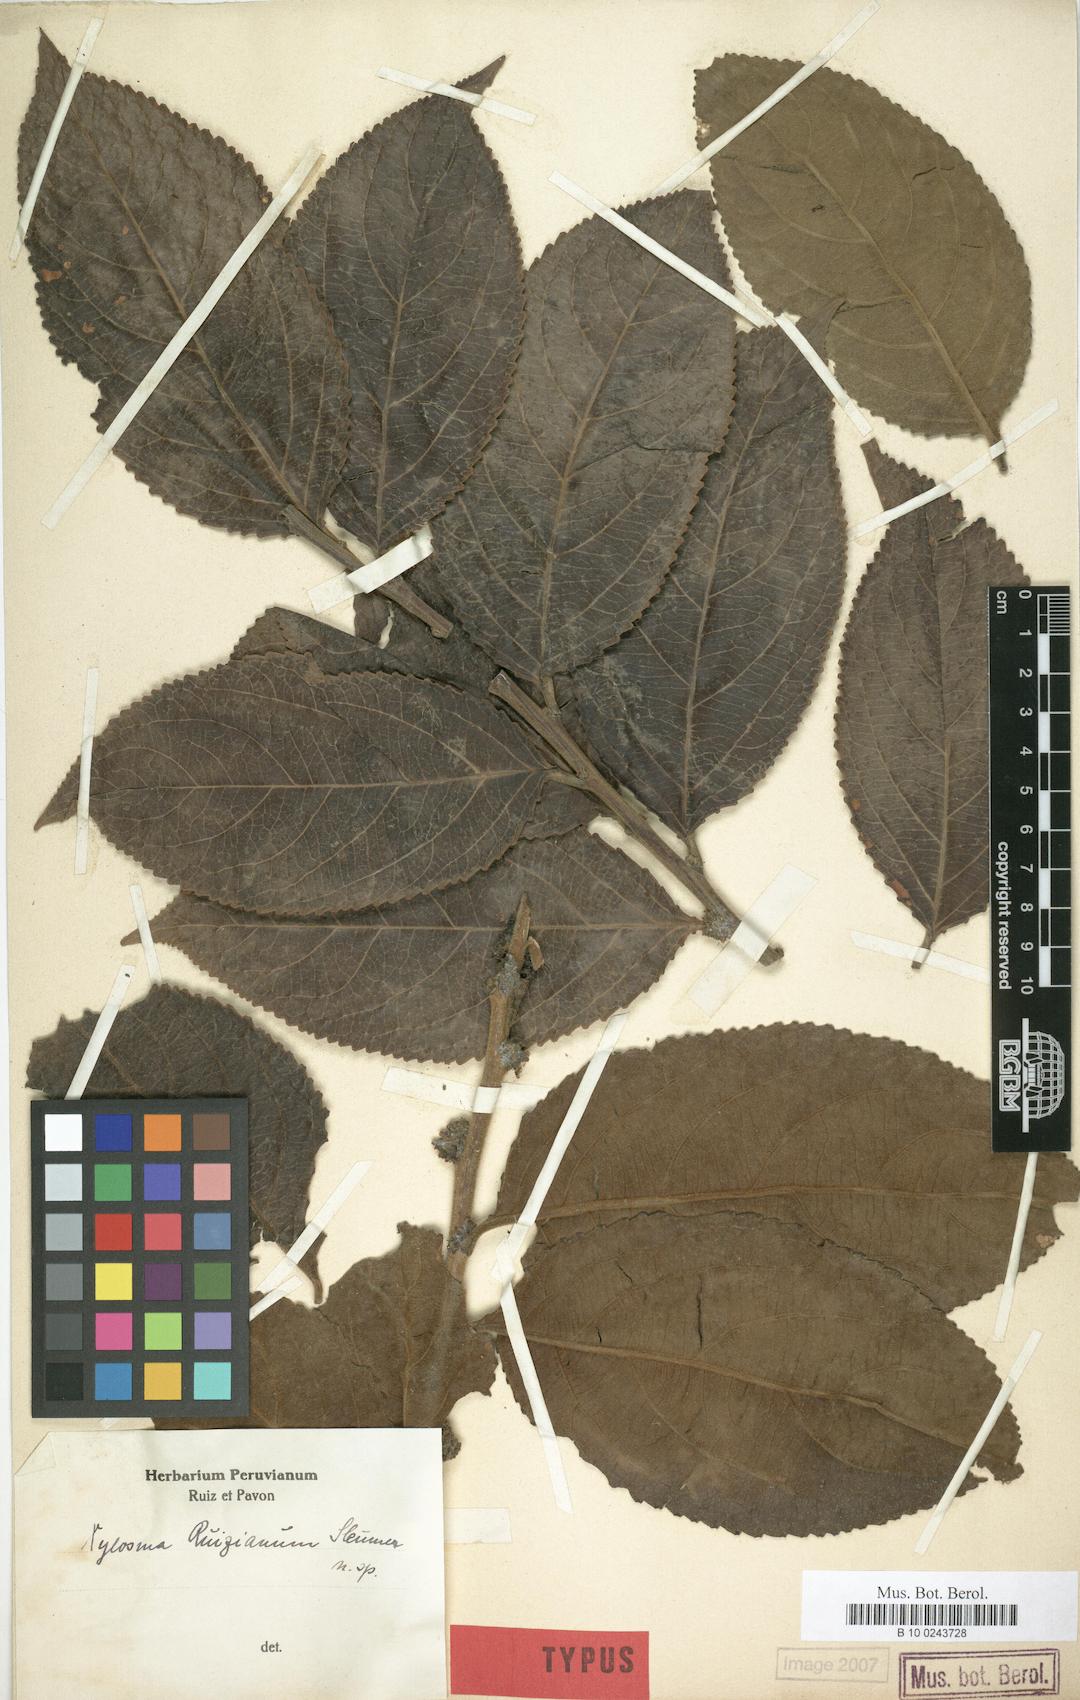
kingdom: Plantae
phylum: Tracheophyta
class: Magnoliopsida
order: Malpighiales
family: Salicaceae
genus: Xylosma
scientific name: Xylosma ruiziana
